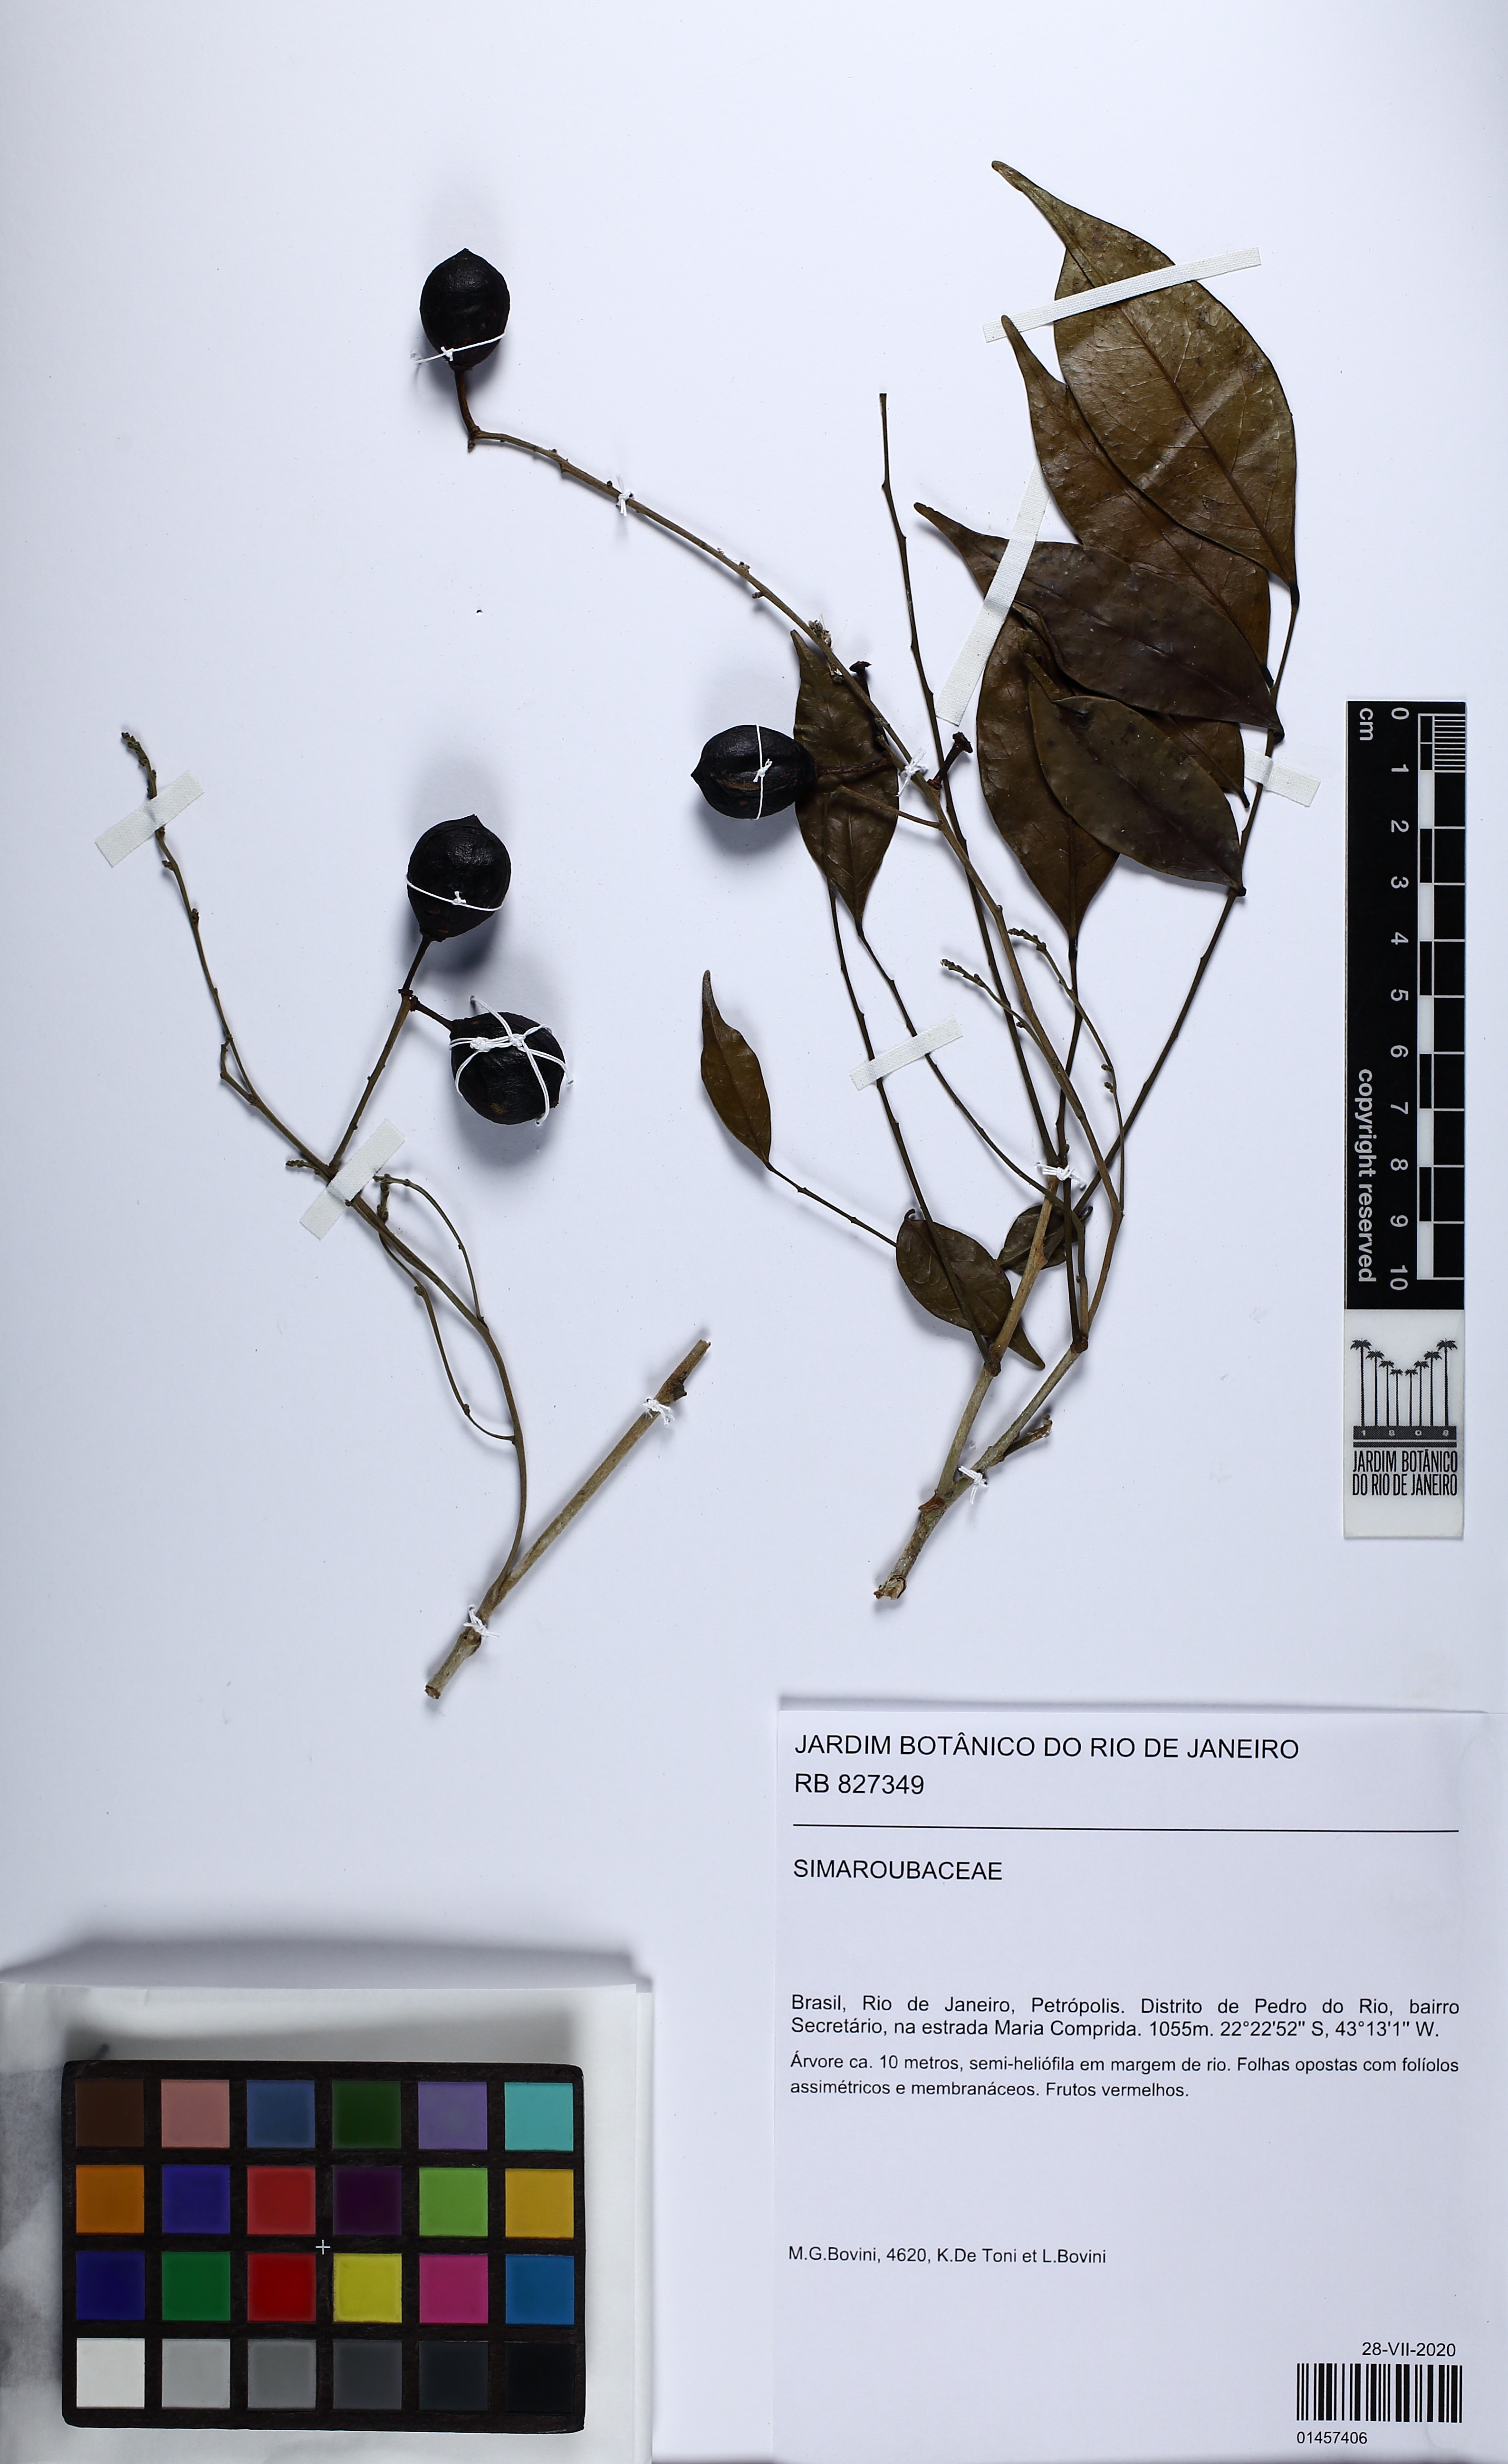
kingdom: Plantae
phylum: Tracheophyta
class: Magnoliopsida
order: Picramniales
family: Picramniaceae
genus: Picramnia
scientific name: Picramnia glazioviana
